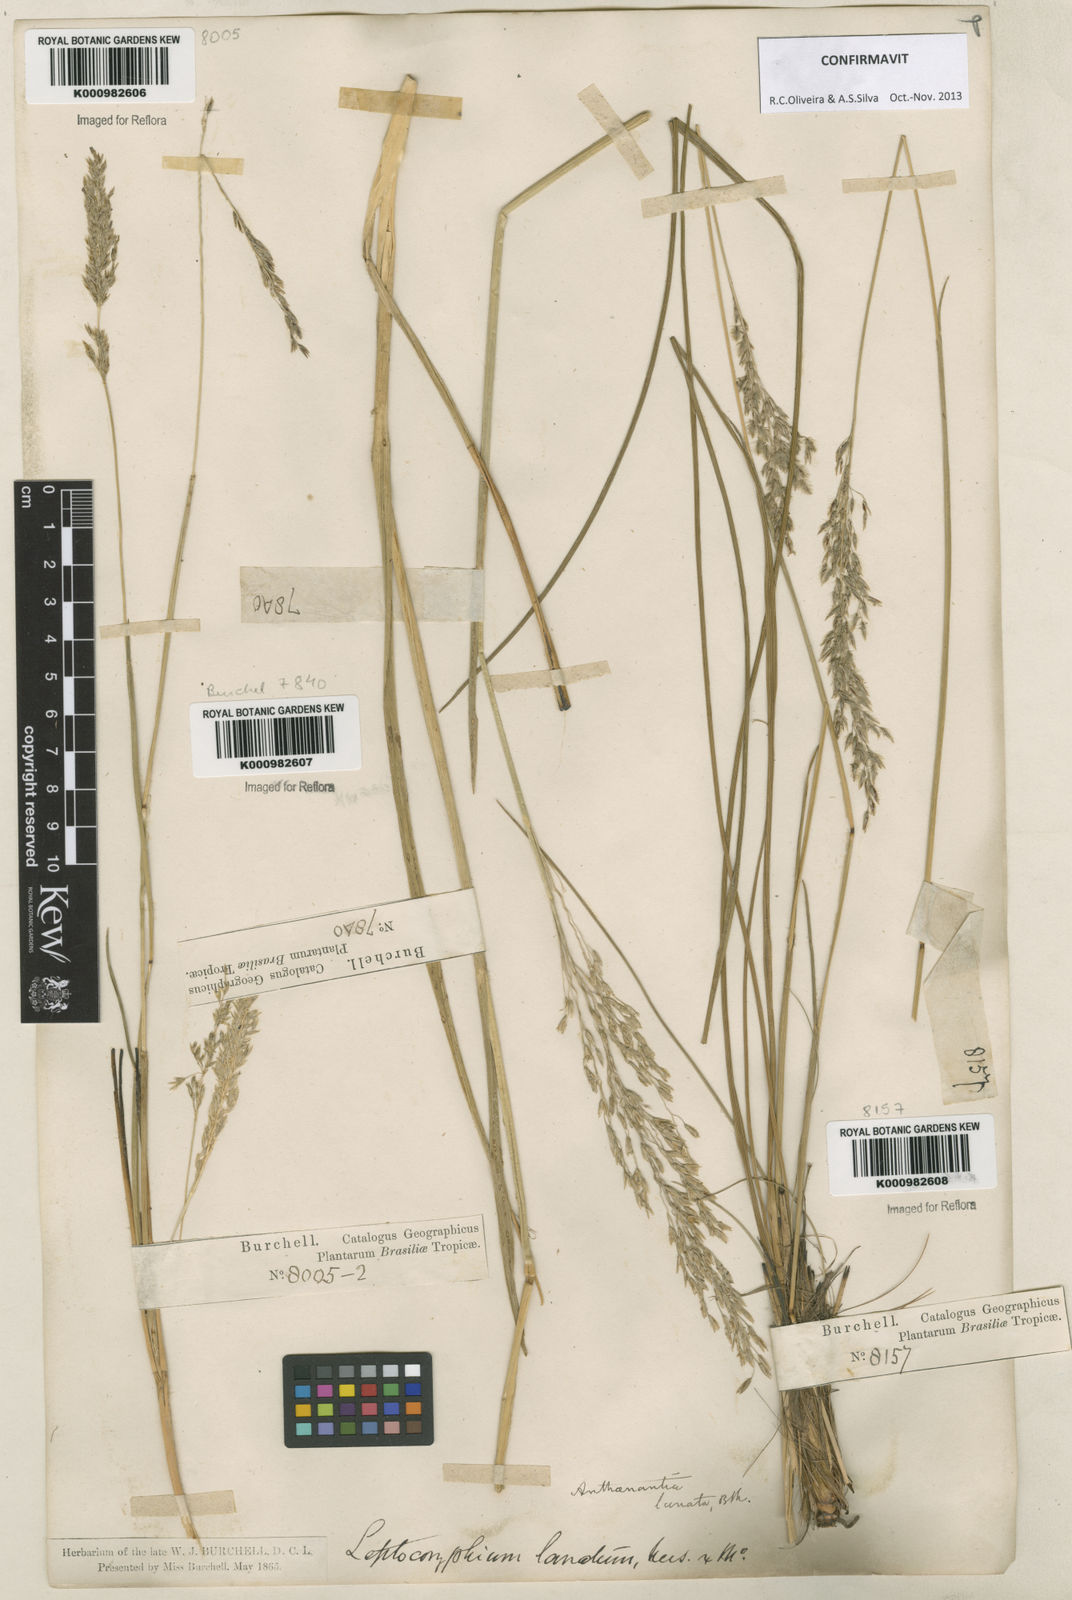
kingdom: Plantae
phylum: Tracheophyta
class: Liliopsida
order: Poales
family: Poaceae
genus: Anthenantia
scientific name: Anthenantia lanata
